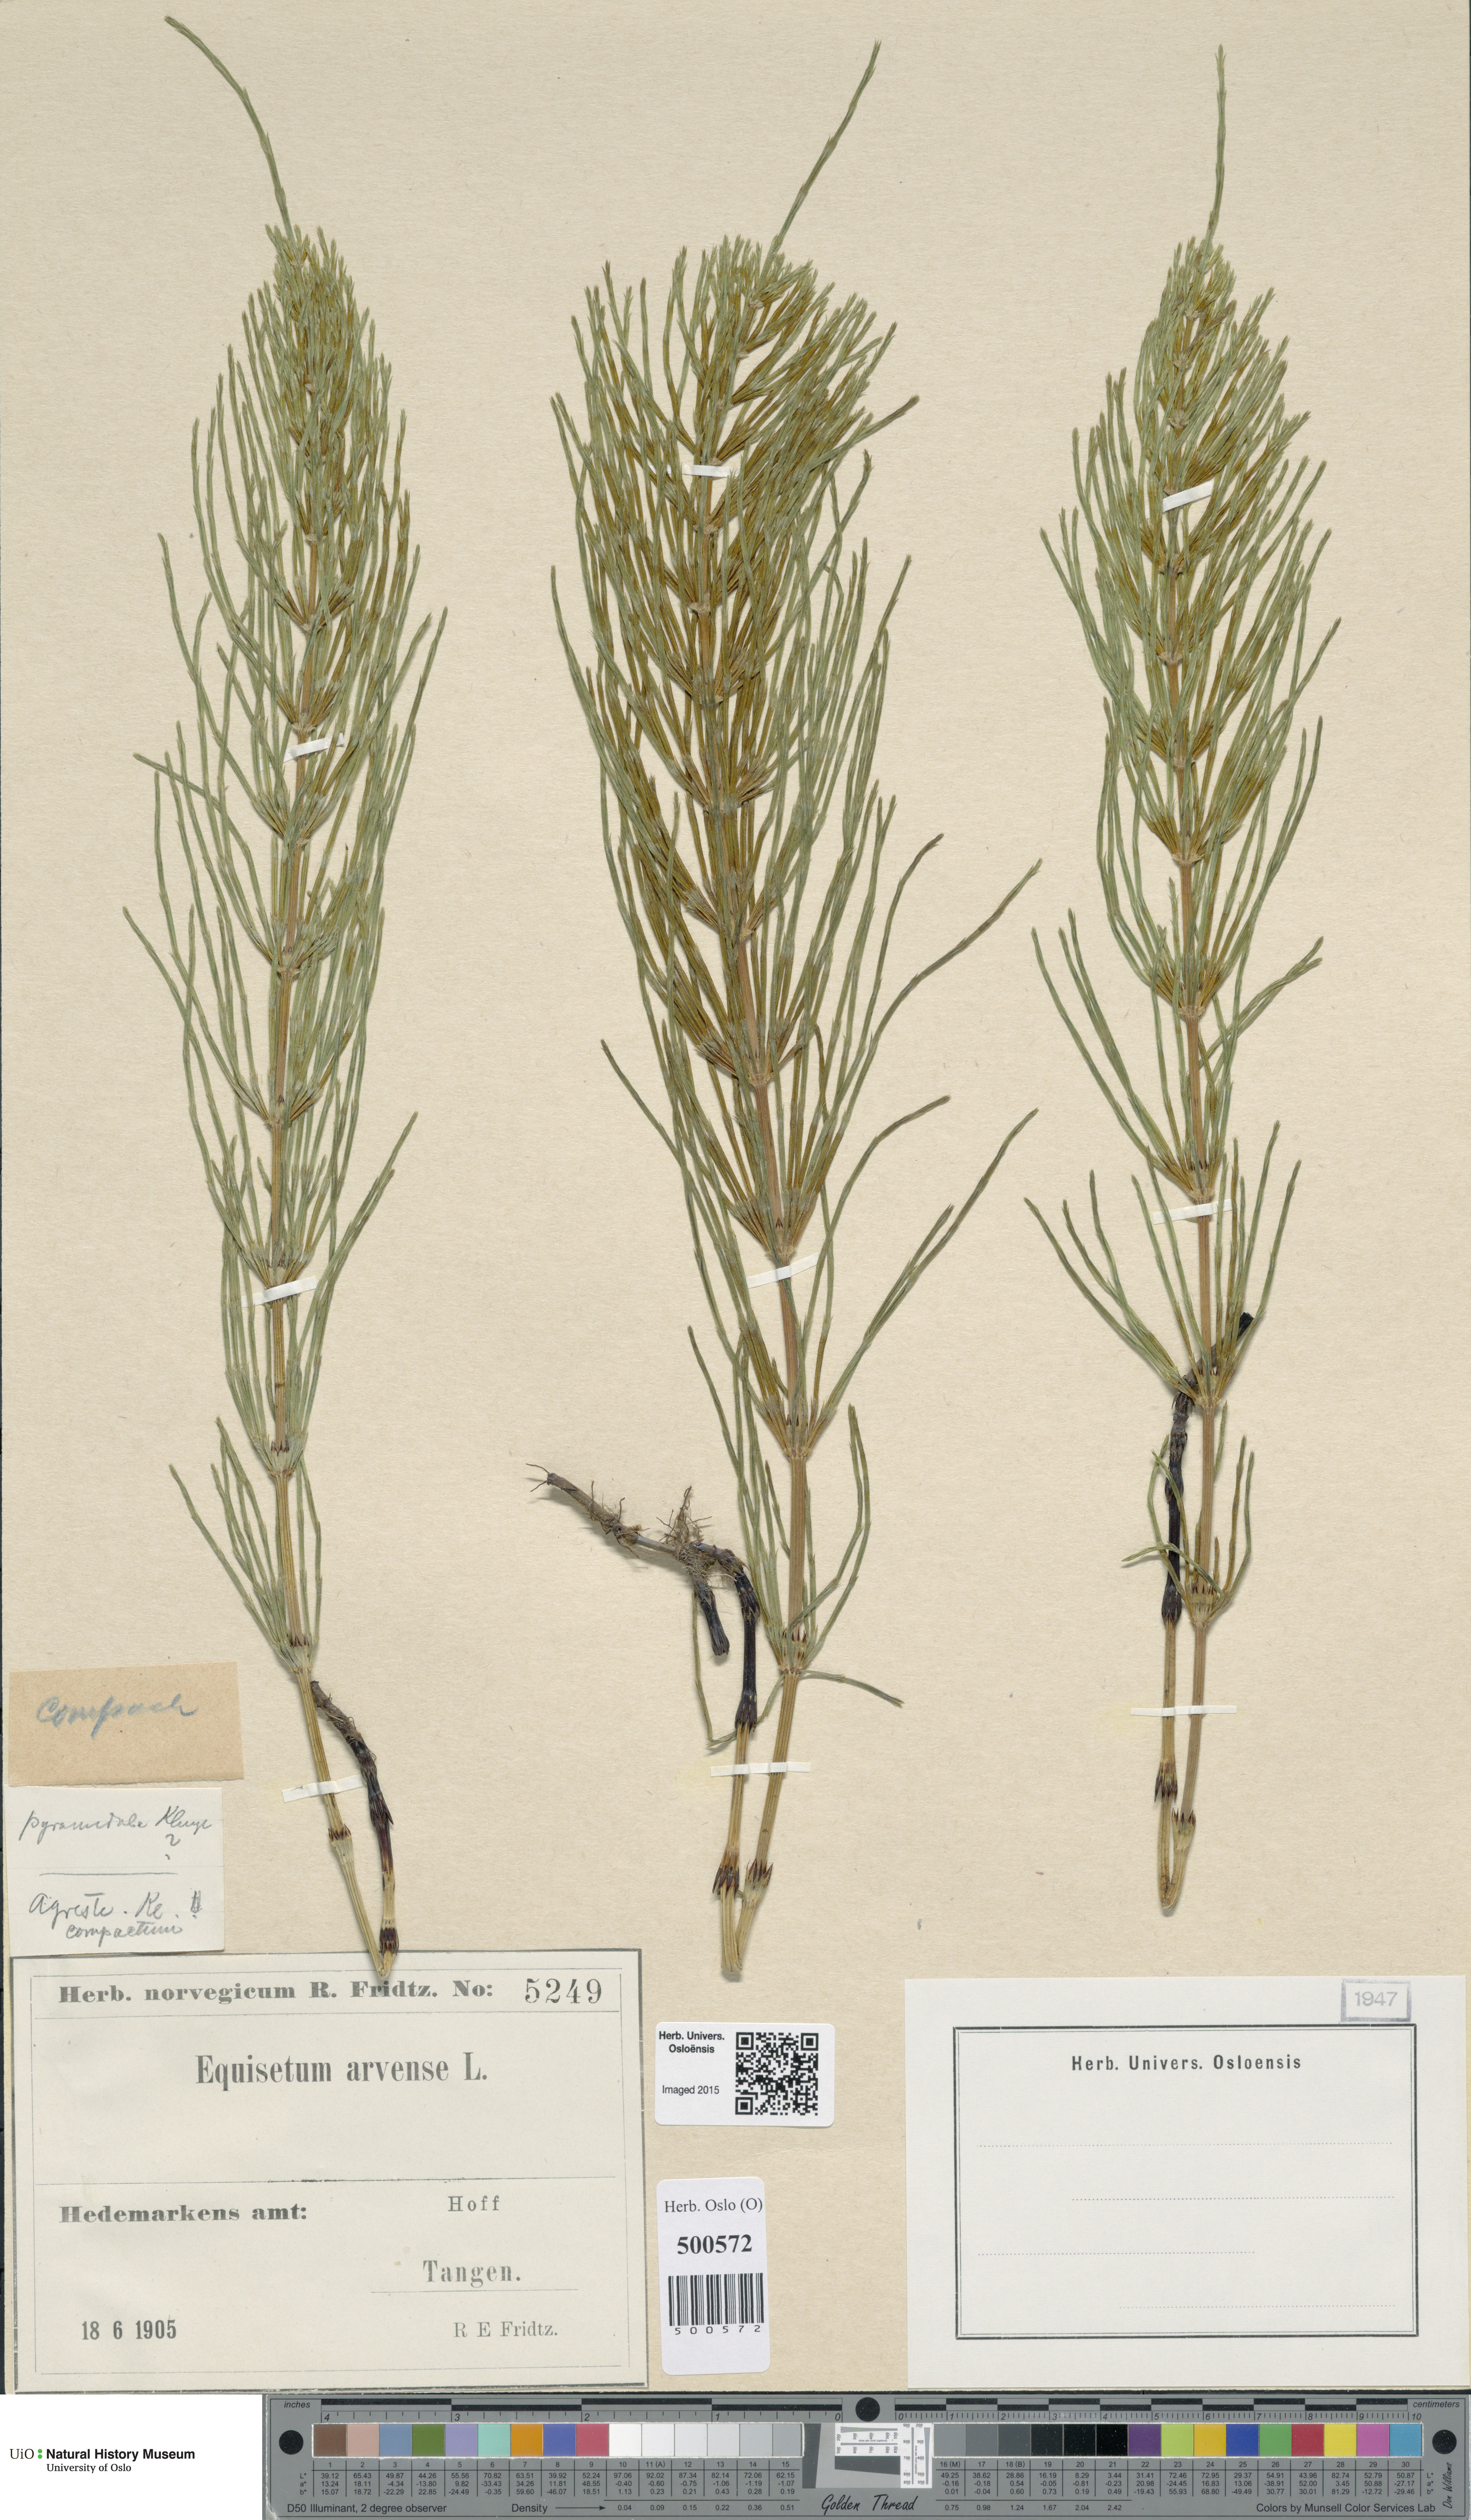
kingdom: Plantae
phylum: Tracheophyta
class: Polypodiopsida
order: Equisetales
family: Equisetaceae
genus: Equisetum
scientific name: Equisetum arvense
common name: Field horsetail
